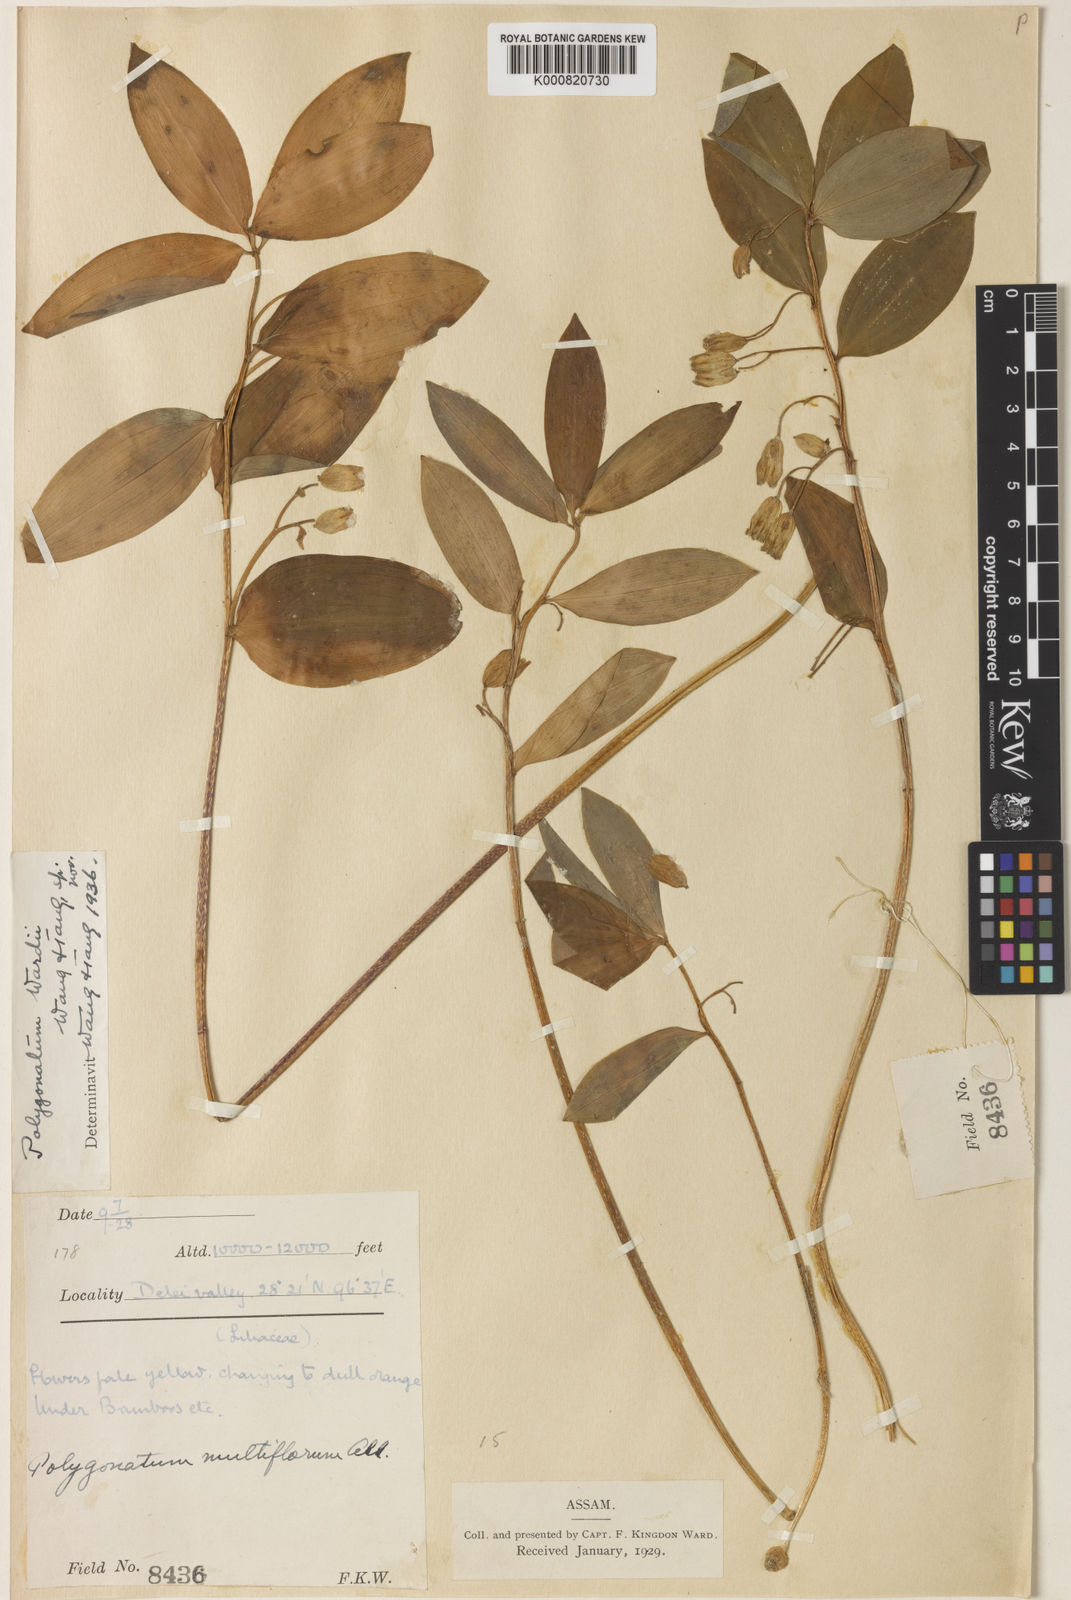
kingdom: Plantae
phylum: Tracheophyta
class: Liliopsida
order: Asparagales
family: Asparagaceae
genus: Polygonatum
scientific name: Polygonatum wardii
